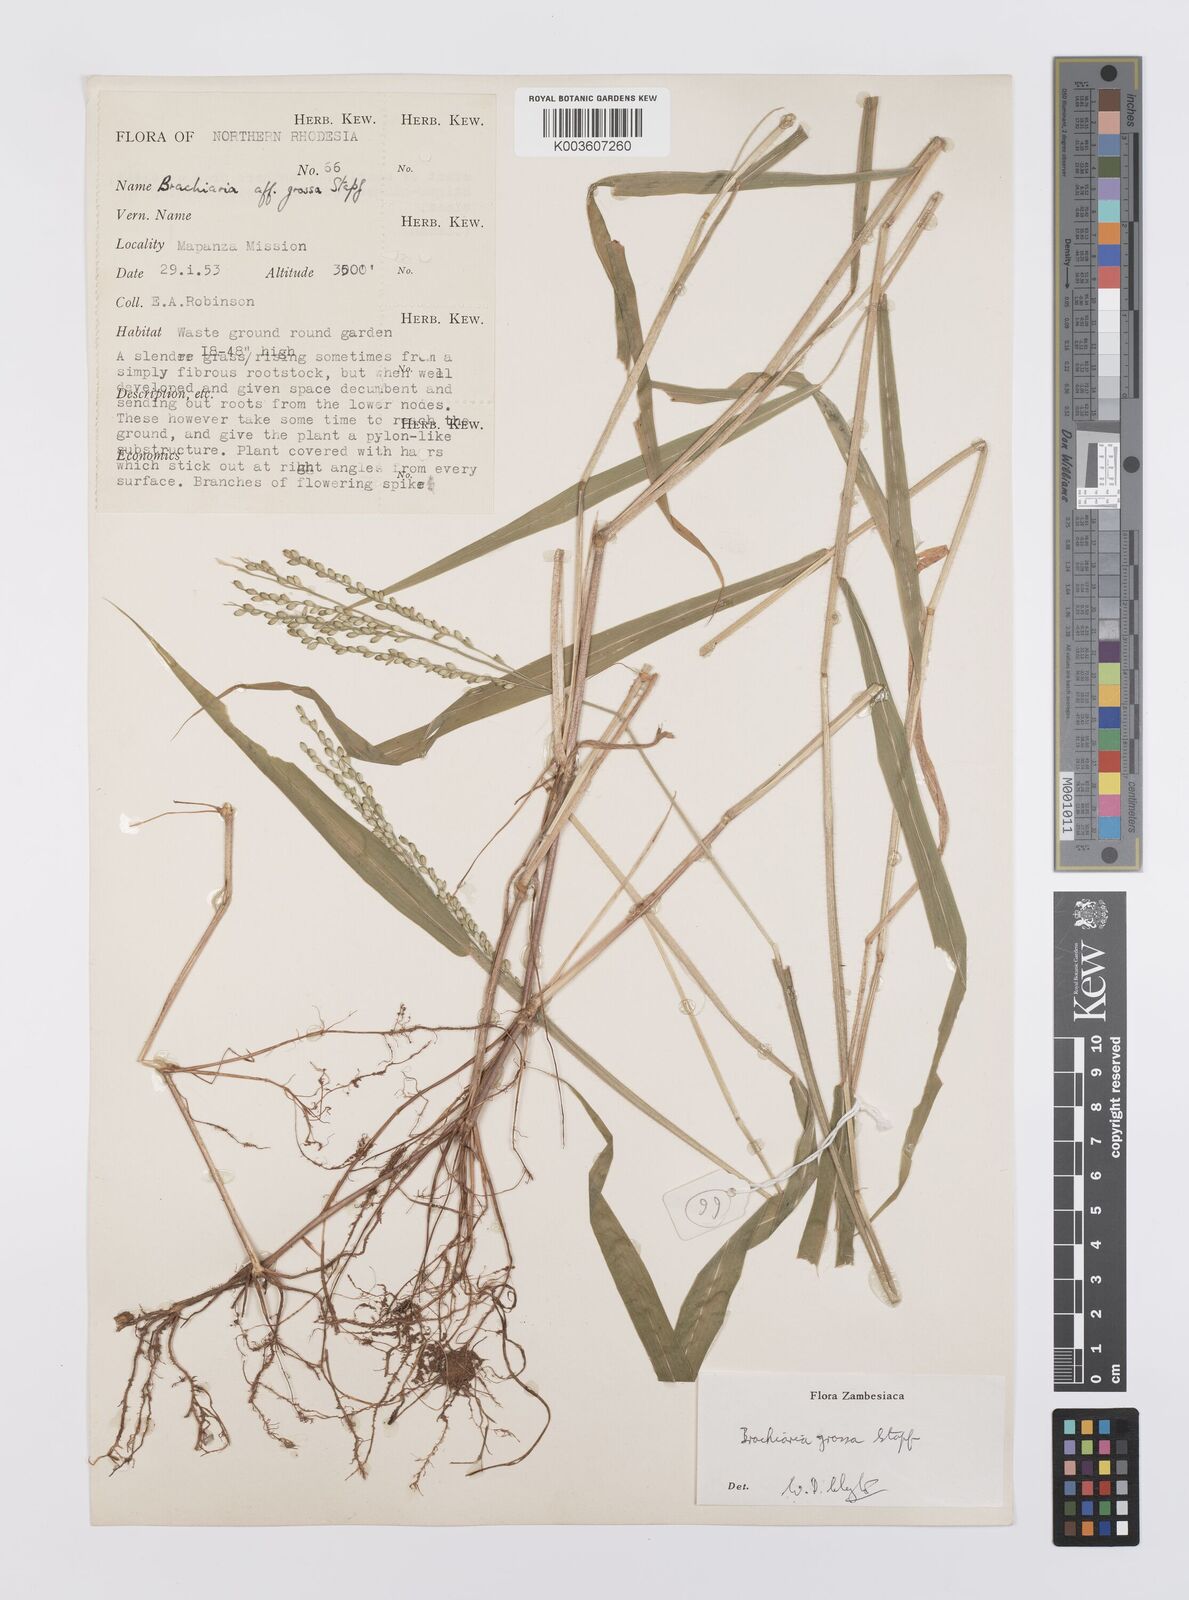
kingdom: Plantae
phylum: Tracheophyta
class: Liliopsida
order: Poales
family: Poaceae
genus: Urochloa
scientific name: Urochloa Brachiaria grossa
